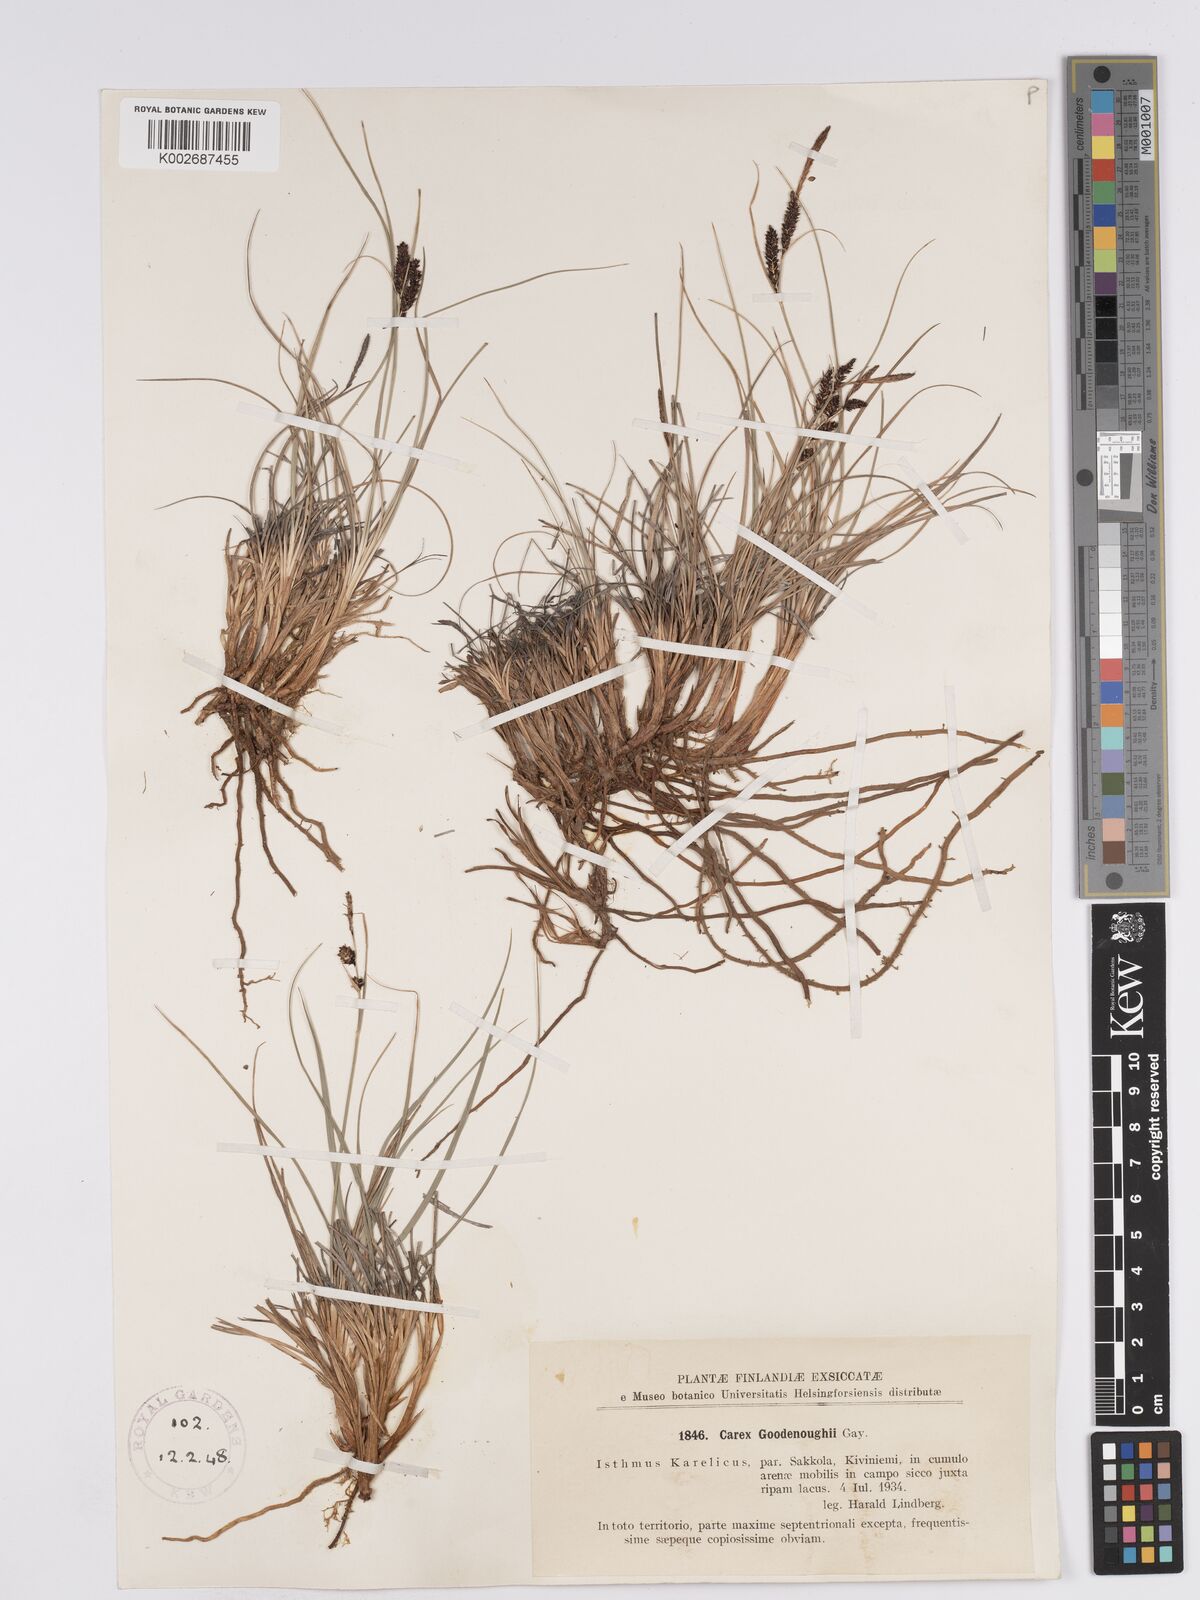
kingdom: Plantae
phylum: Tracheophyta
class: Liliopsida
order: Poales
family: Cyperaceae
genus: Carex
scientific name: Carex nigra
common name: Common sedge
